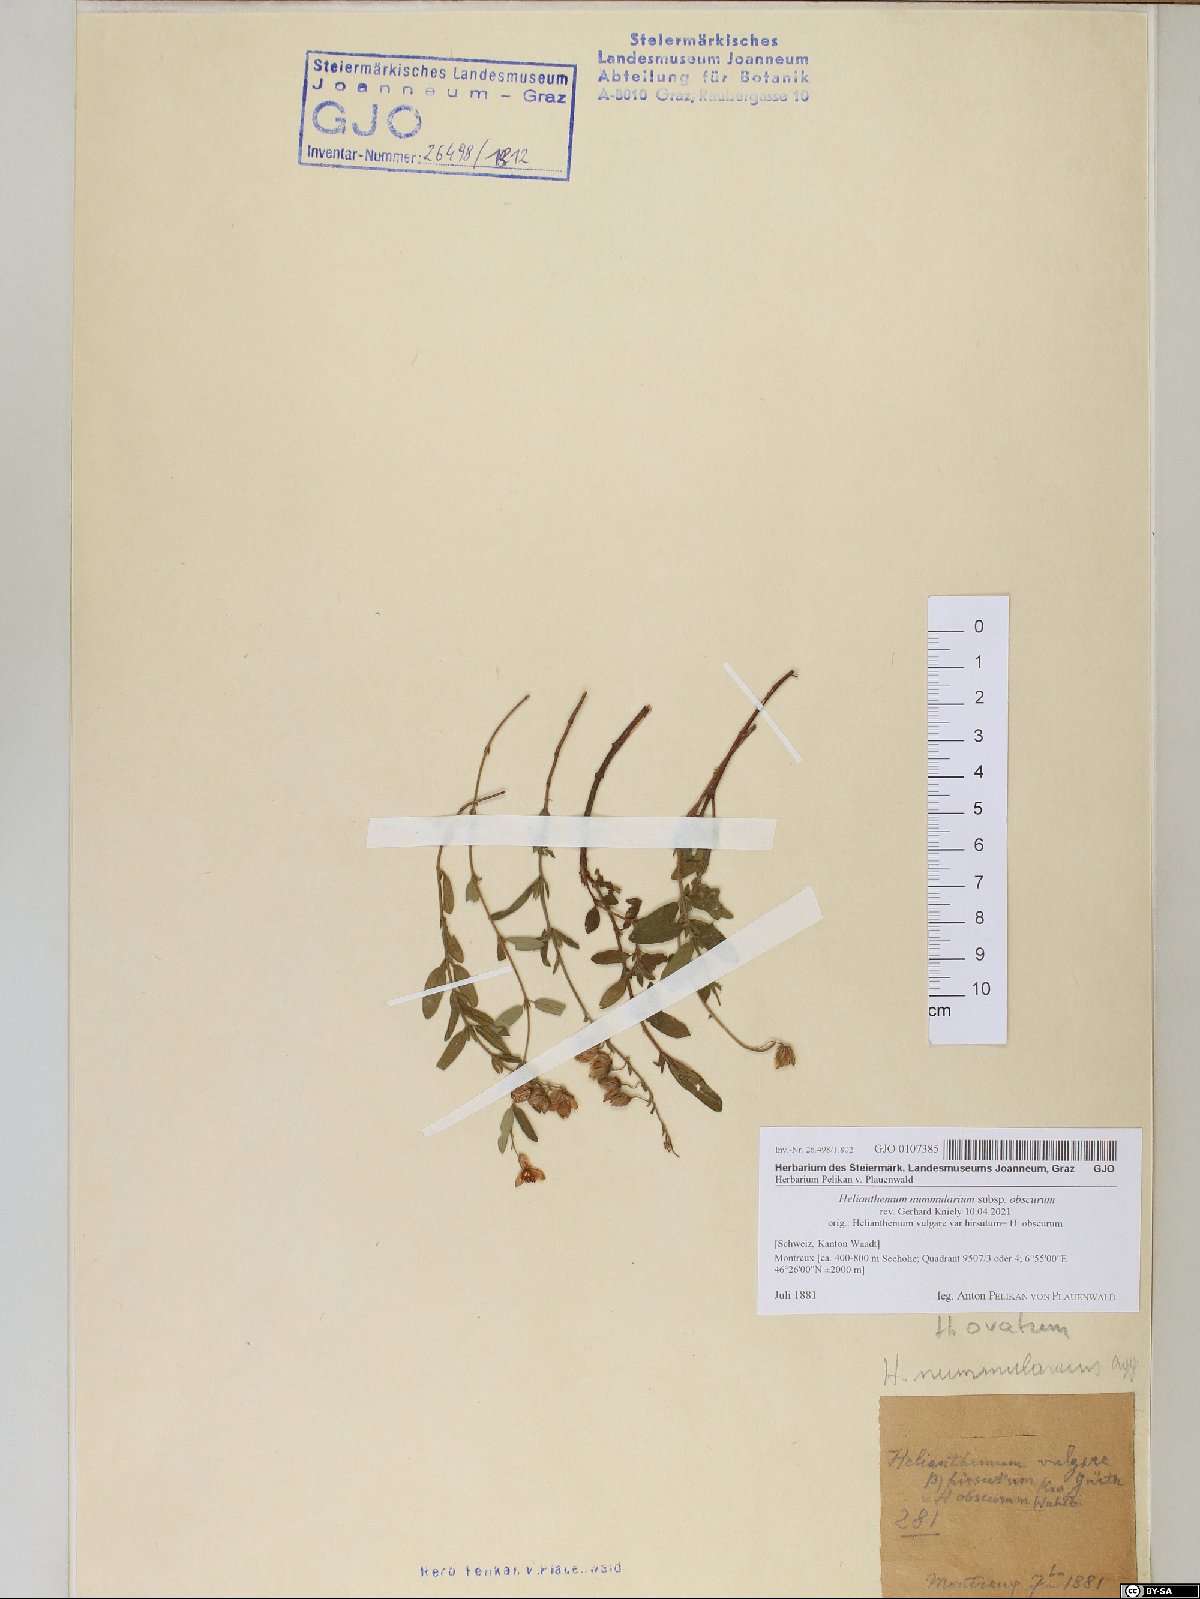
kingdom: Plantae
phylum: Tracheophyta
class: Magnoliopsida
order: Malvales
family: Cistaceae
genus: Helianthemum
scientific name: Helianthemum nummularium
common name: Common rock-rose
